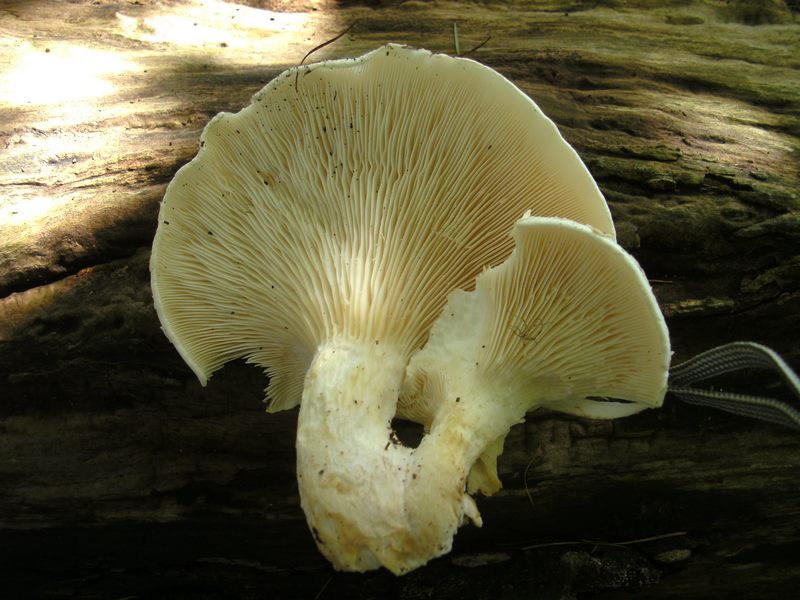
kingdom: Fungi
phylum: Basidiomycota
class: Agaricomycetes
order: Agaricales
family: Pleurotaceae
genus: Pleurotus
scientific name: Pleurotus dryinus
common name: korkagtig østershat
